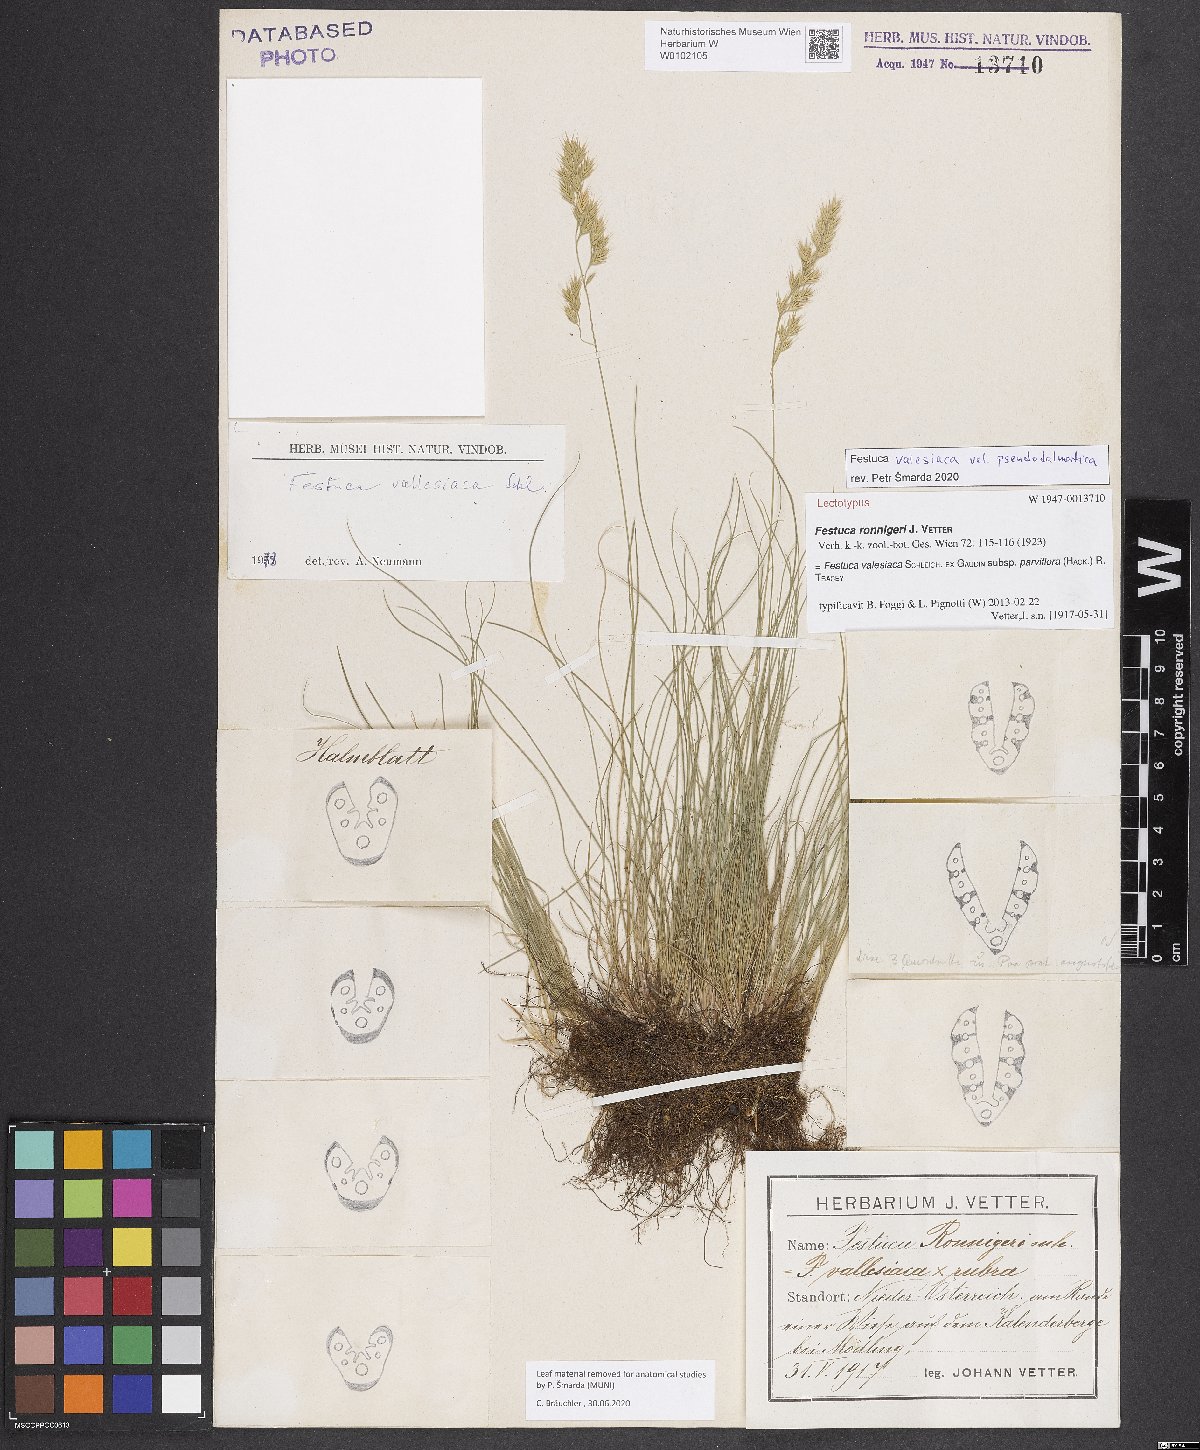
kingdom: Plantae
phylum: Tracheophyta
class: Liliopsida
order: Poales
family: Poaceae
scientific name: Poaceae
